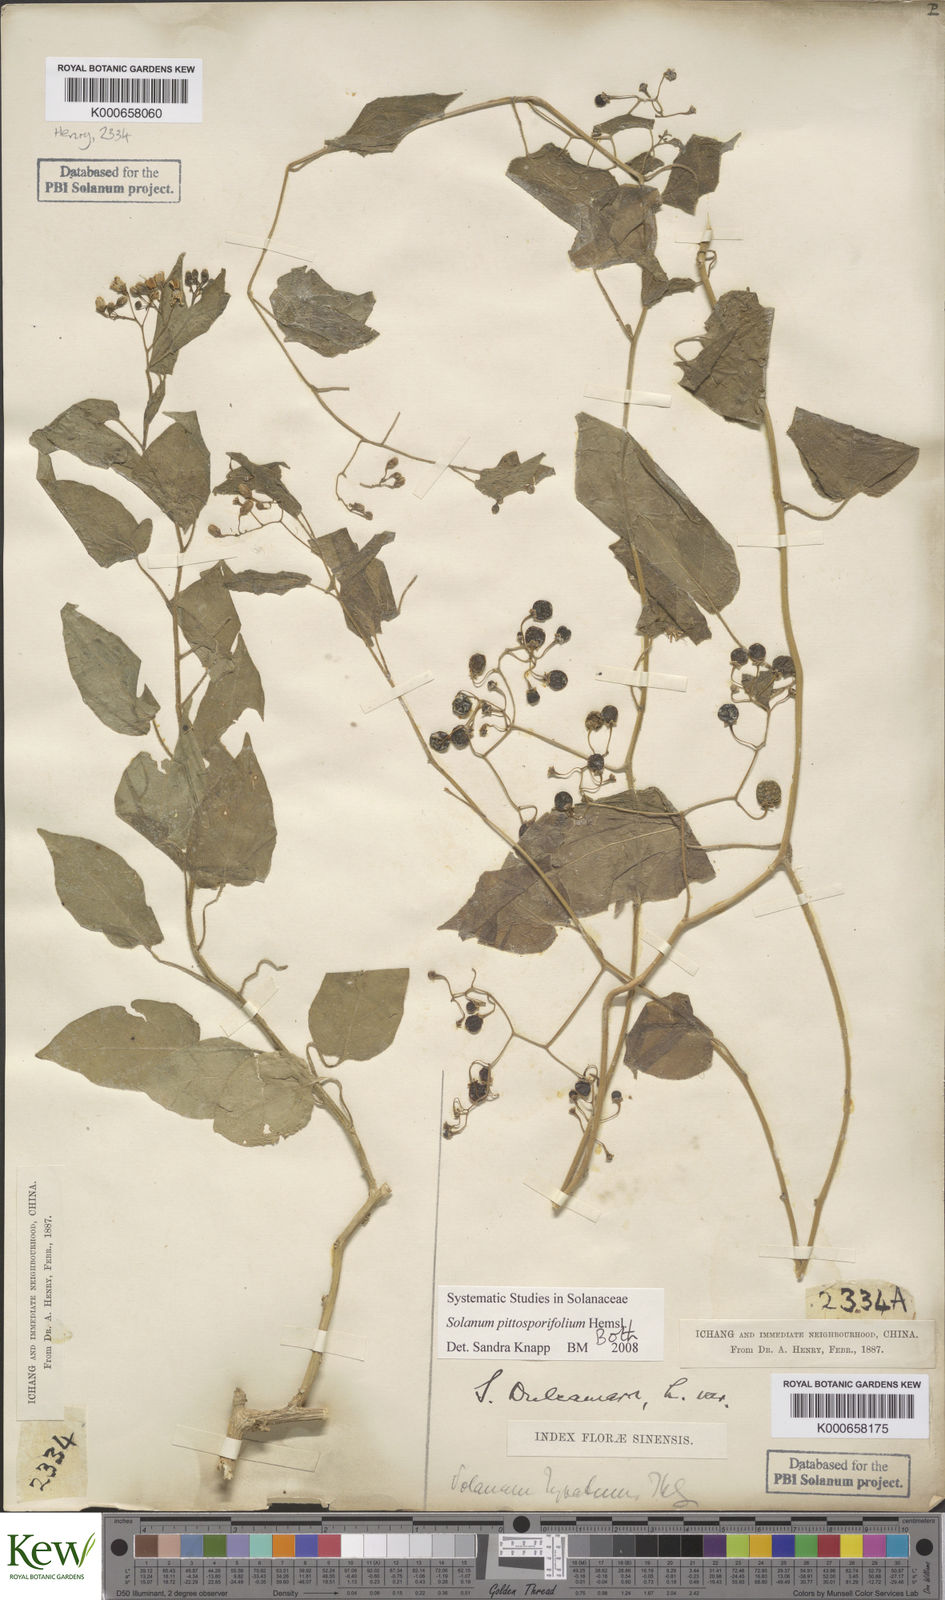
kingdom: Plantae
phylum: Tracheophyta
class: Magnoliopsida
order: Solanales
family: Solanaceae
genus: Solanum
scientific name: Solanum pittosporifolium
